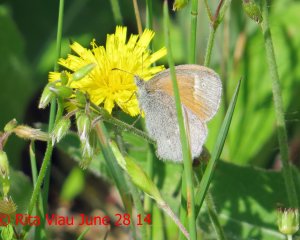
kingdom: Animalia
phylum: Arthropoda
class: Insecta
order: Lepidoptera
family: Nymphalidae
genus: Coenonympha
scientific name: Coenonympha tullia
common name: Large Heath
